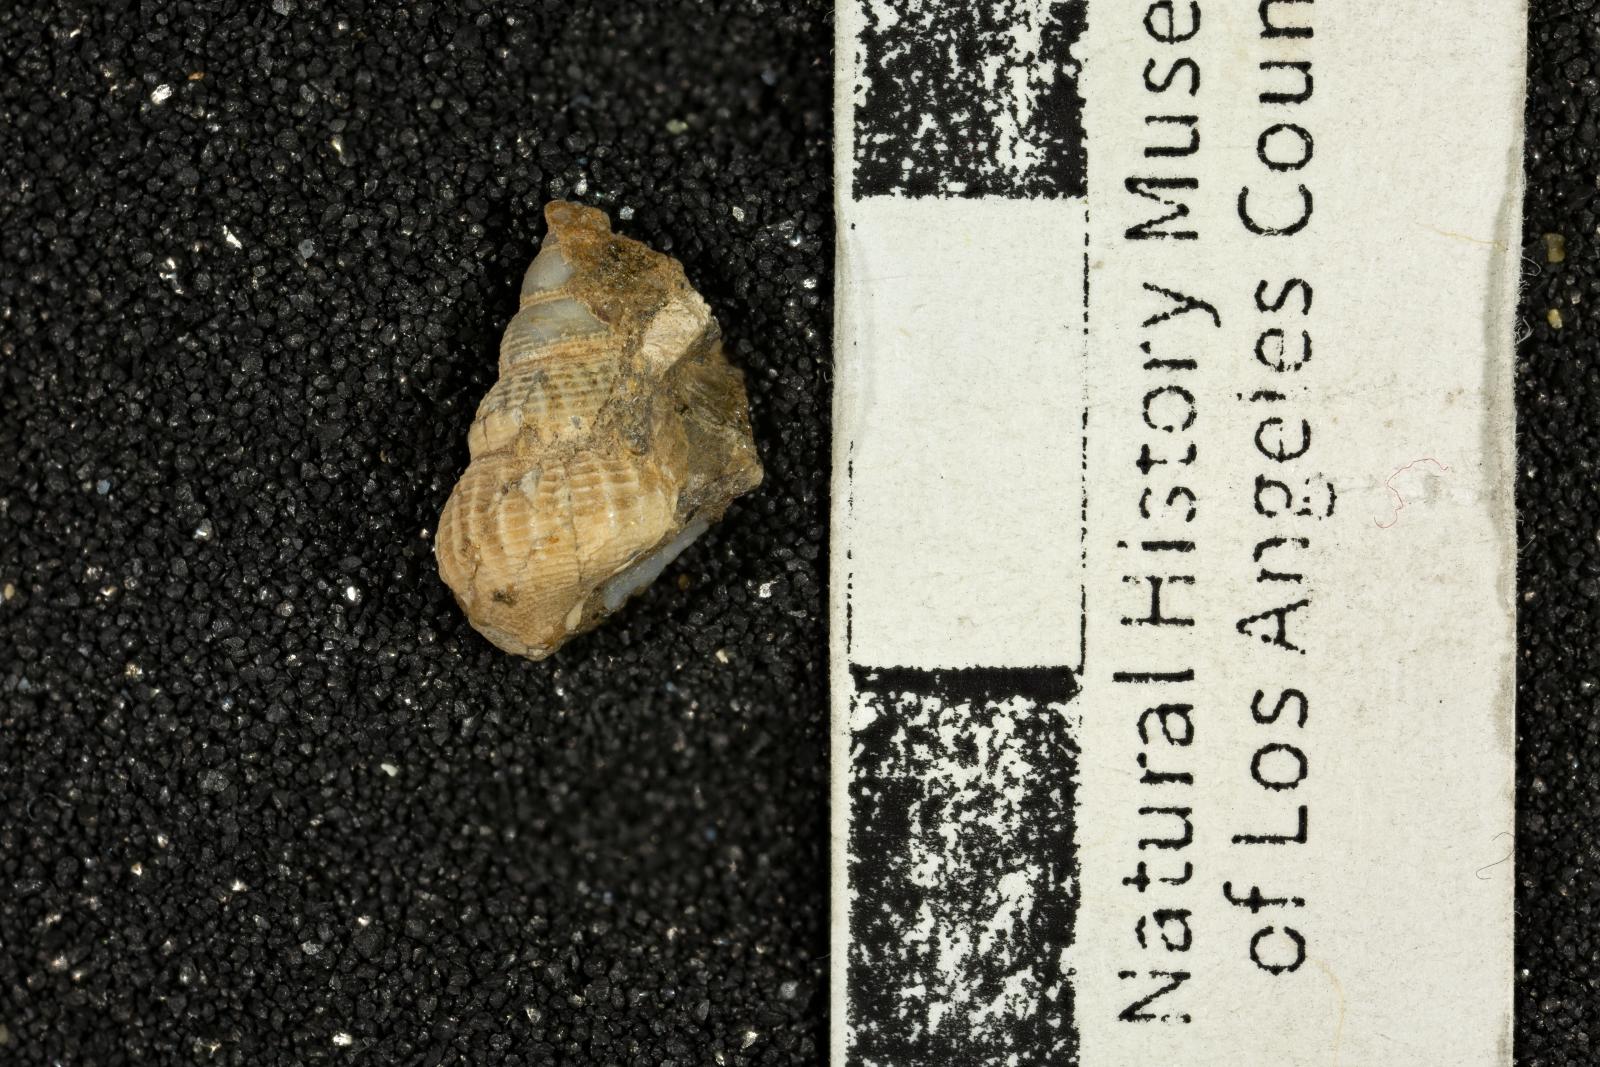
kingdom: Animalia
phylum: Mollusca
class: Gastropoda
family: Epitoniidae
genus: Acirsa
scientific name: Acirsa Ceratia nexilia
